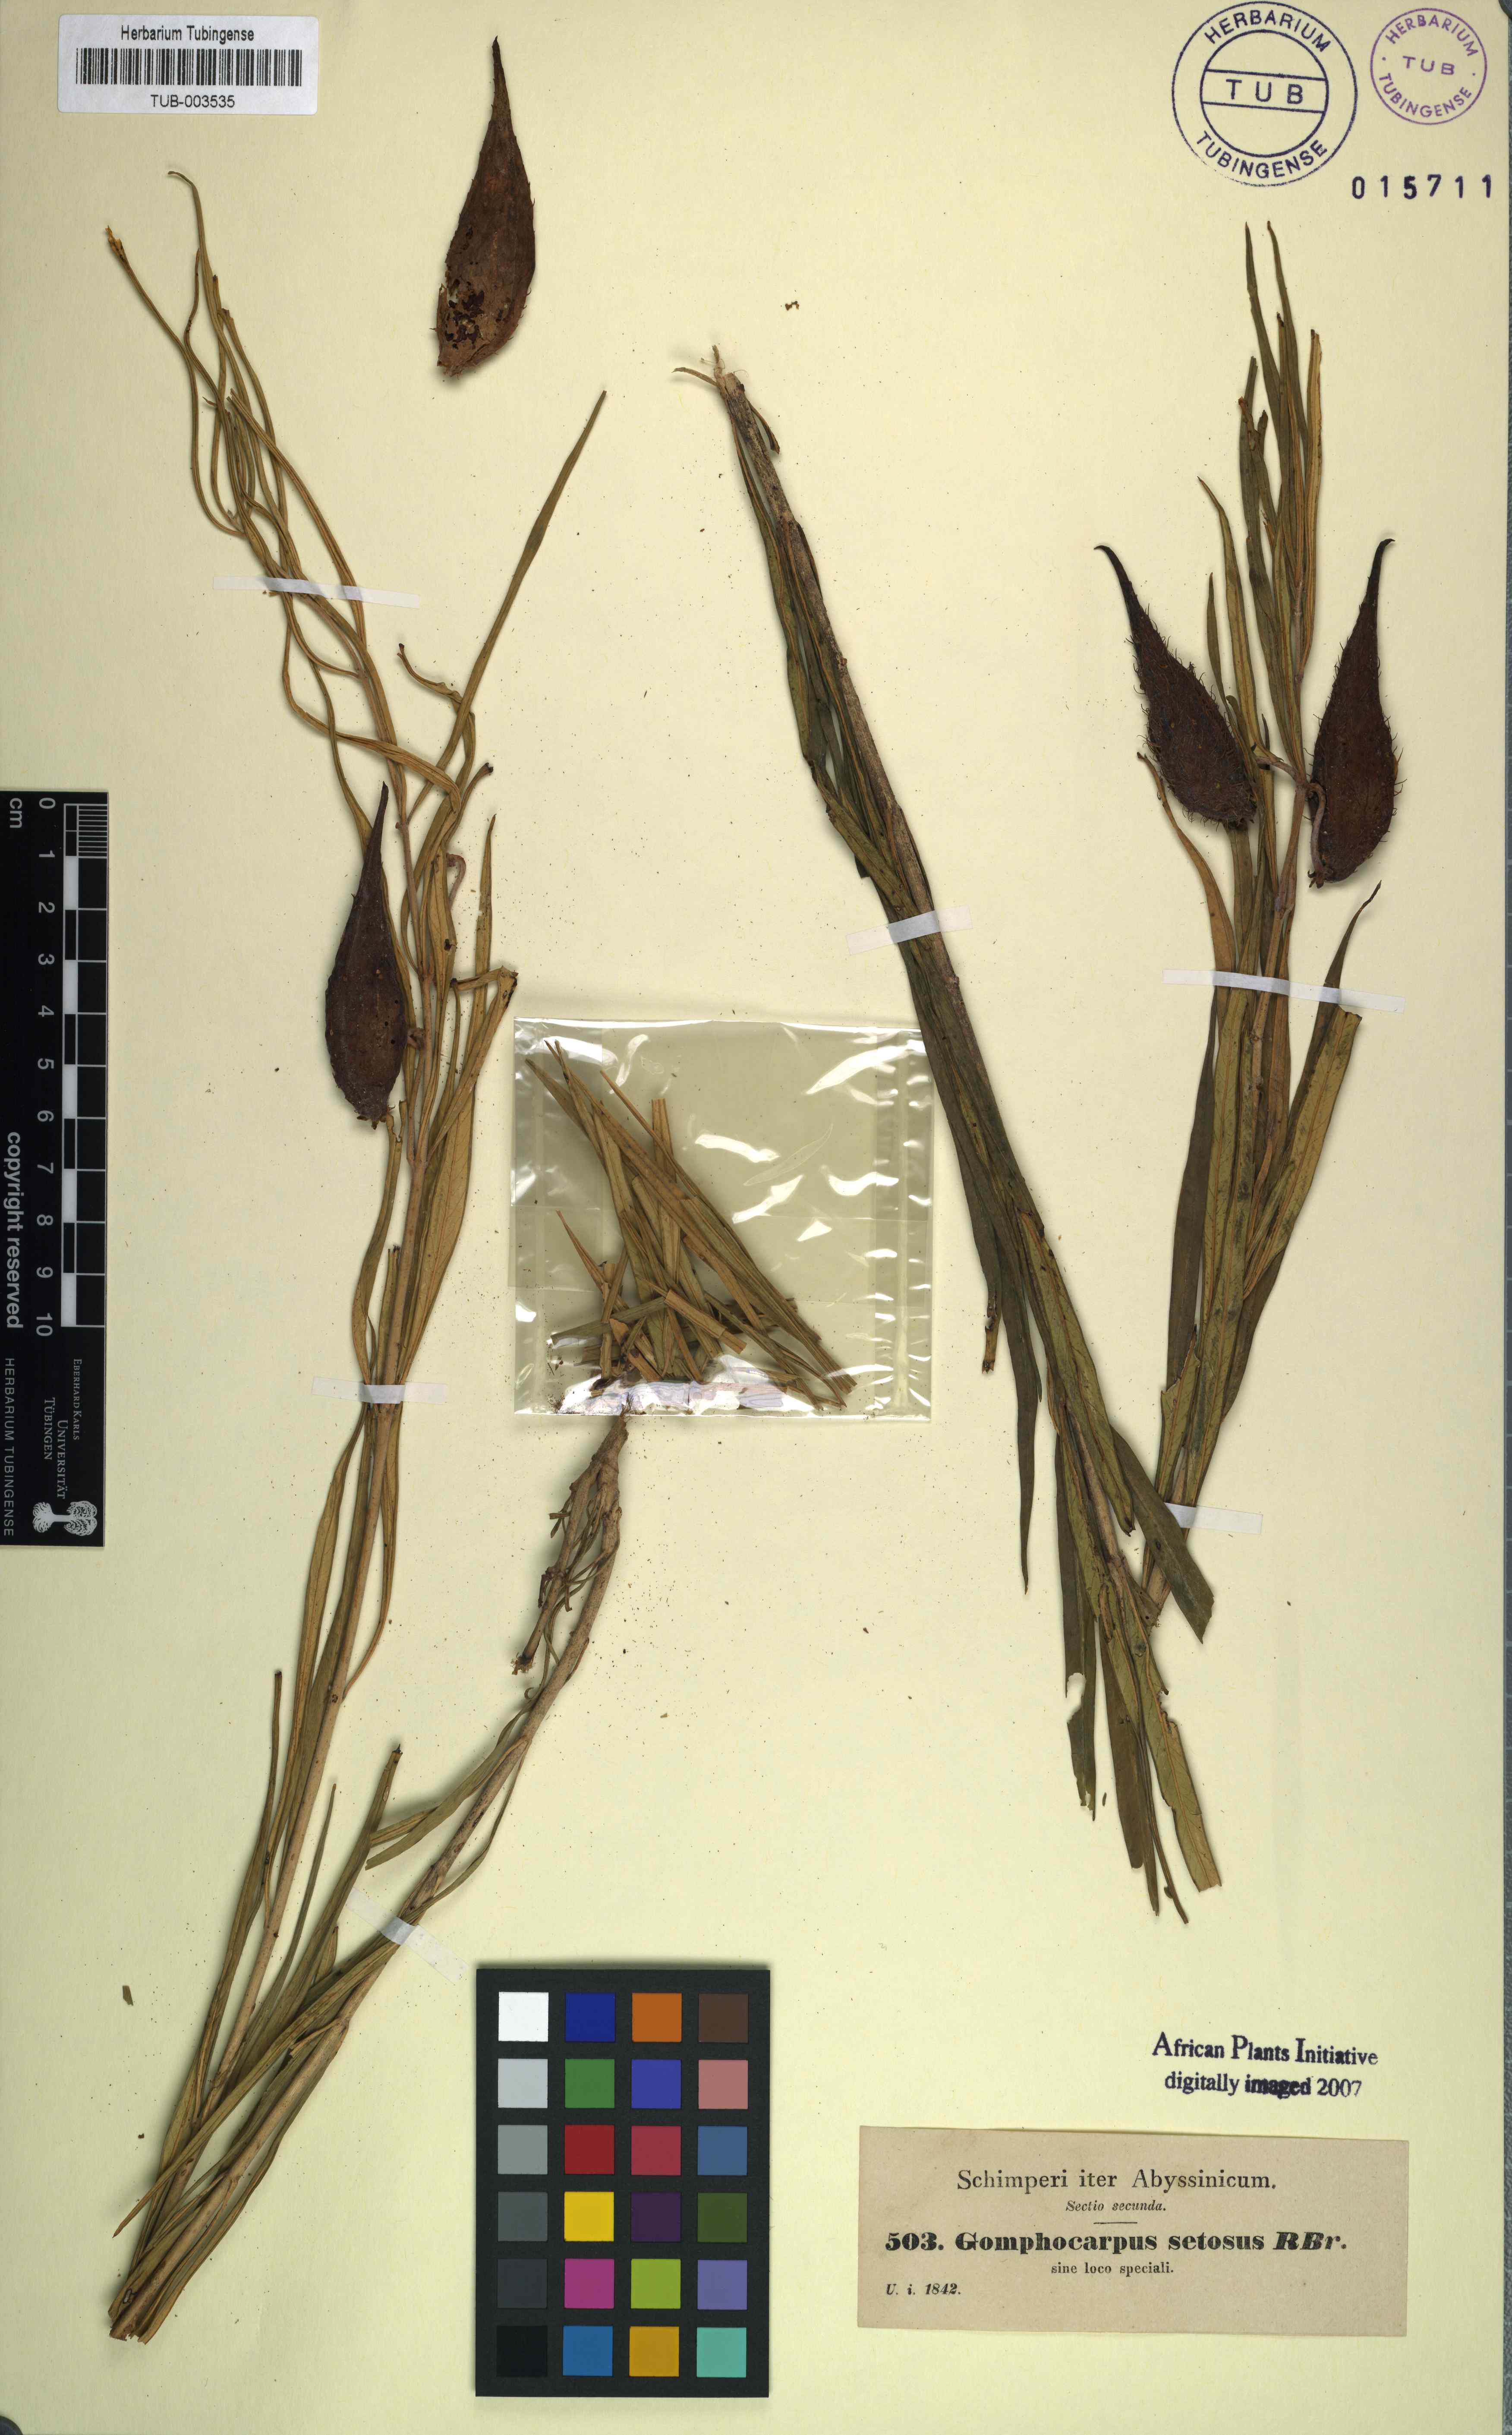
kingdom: Plantae
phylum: Tracheophyta
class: Magnoliopsida
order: Gentianales
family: Apocynaceae
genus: Gomphocarpus
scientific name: Gomphocarpus fruticosus
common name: Milkweed
